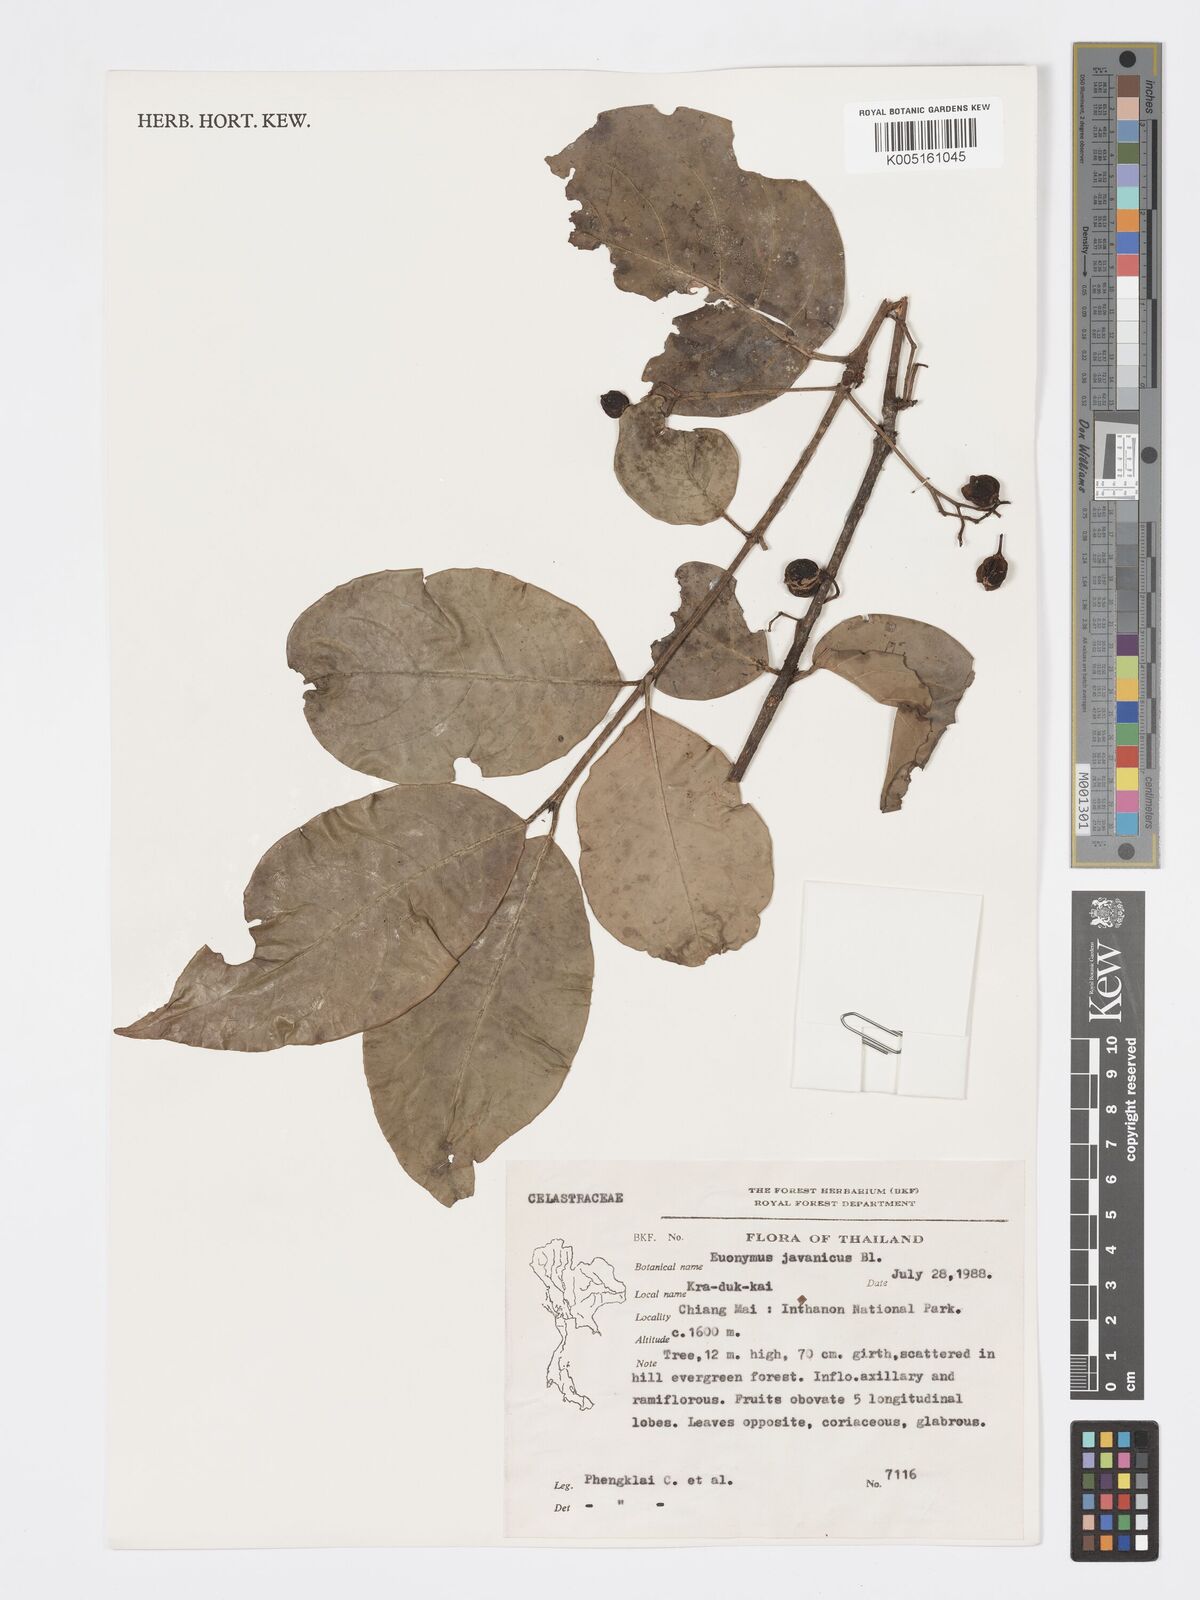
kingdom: Plantae
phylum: Tracheophyta
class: Magnoliopsida
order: Celastrales
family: Celastraceae
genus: Euonymus
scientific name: Euonymus indicus
